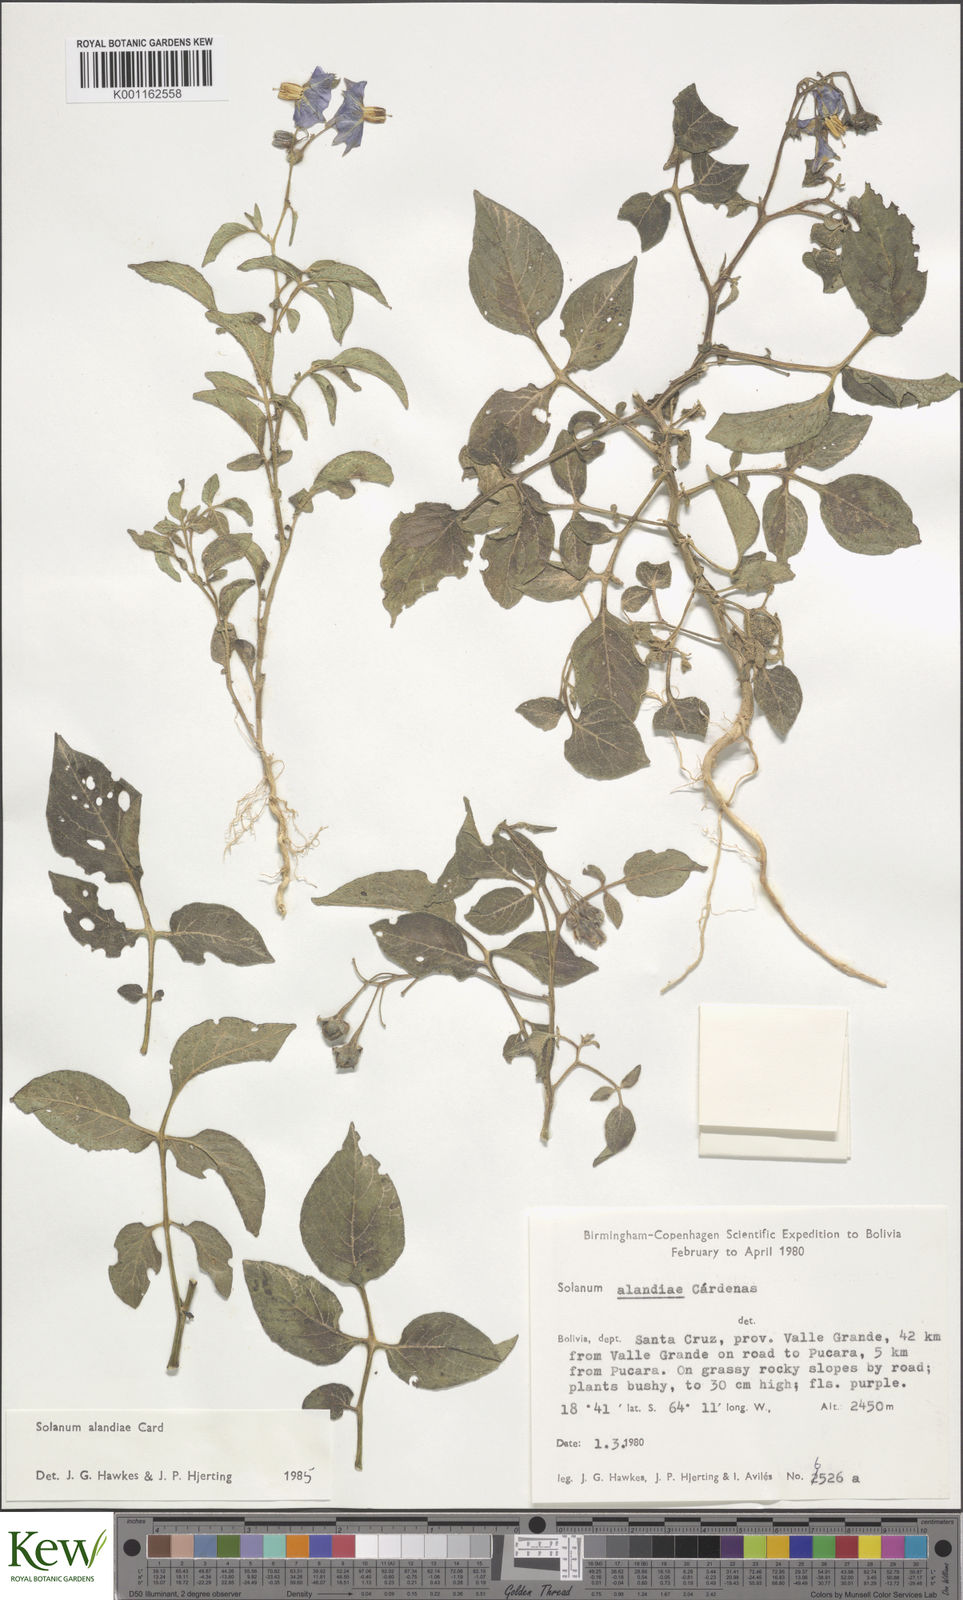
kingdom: Plantae
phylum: Tracheophyta
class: Magnoliopsida
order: Solanales
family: Solanaceae
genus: Solanum
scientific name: Solanum
